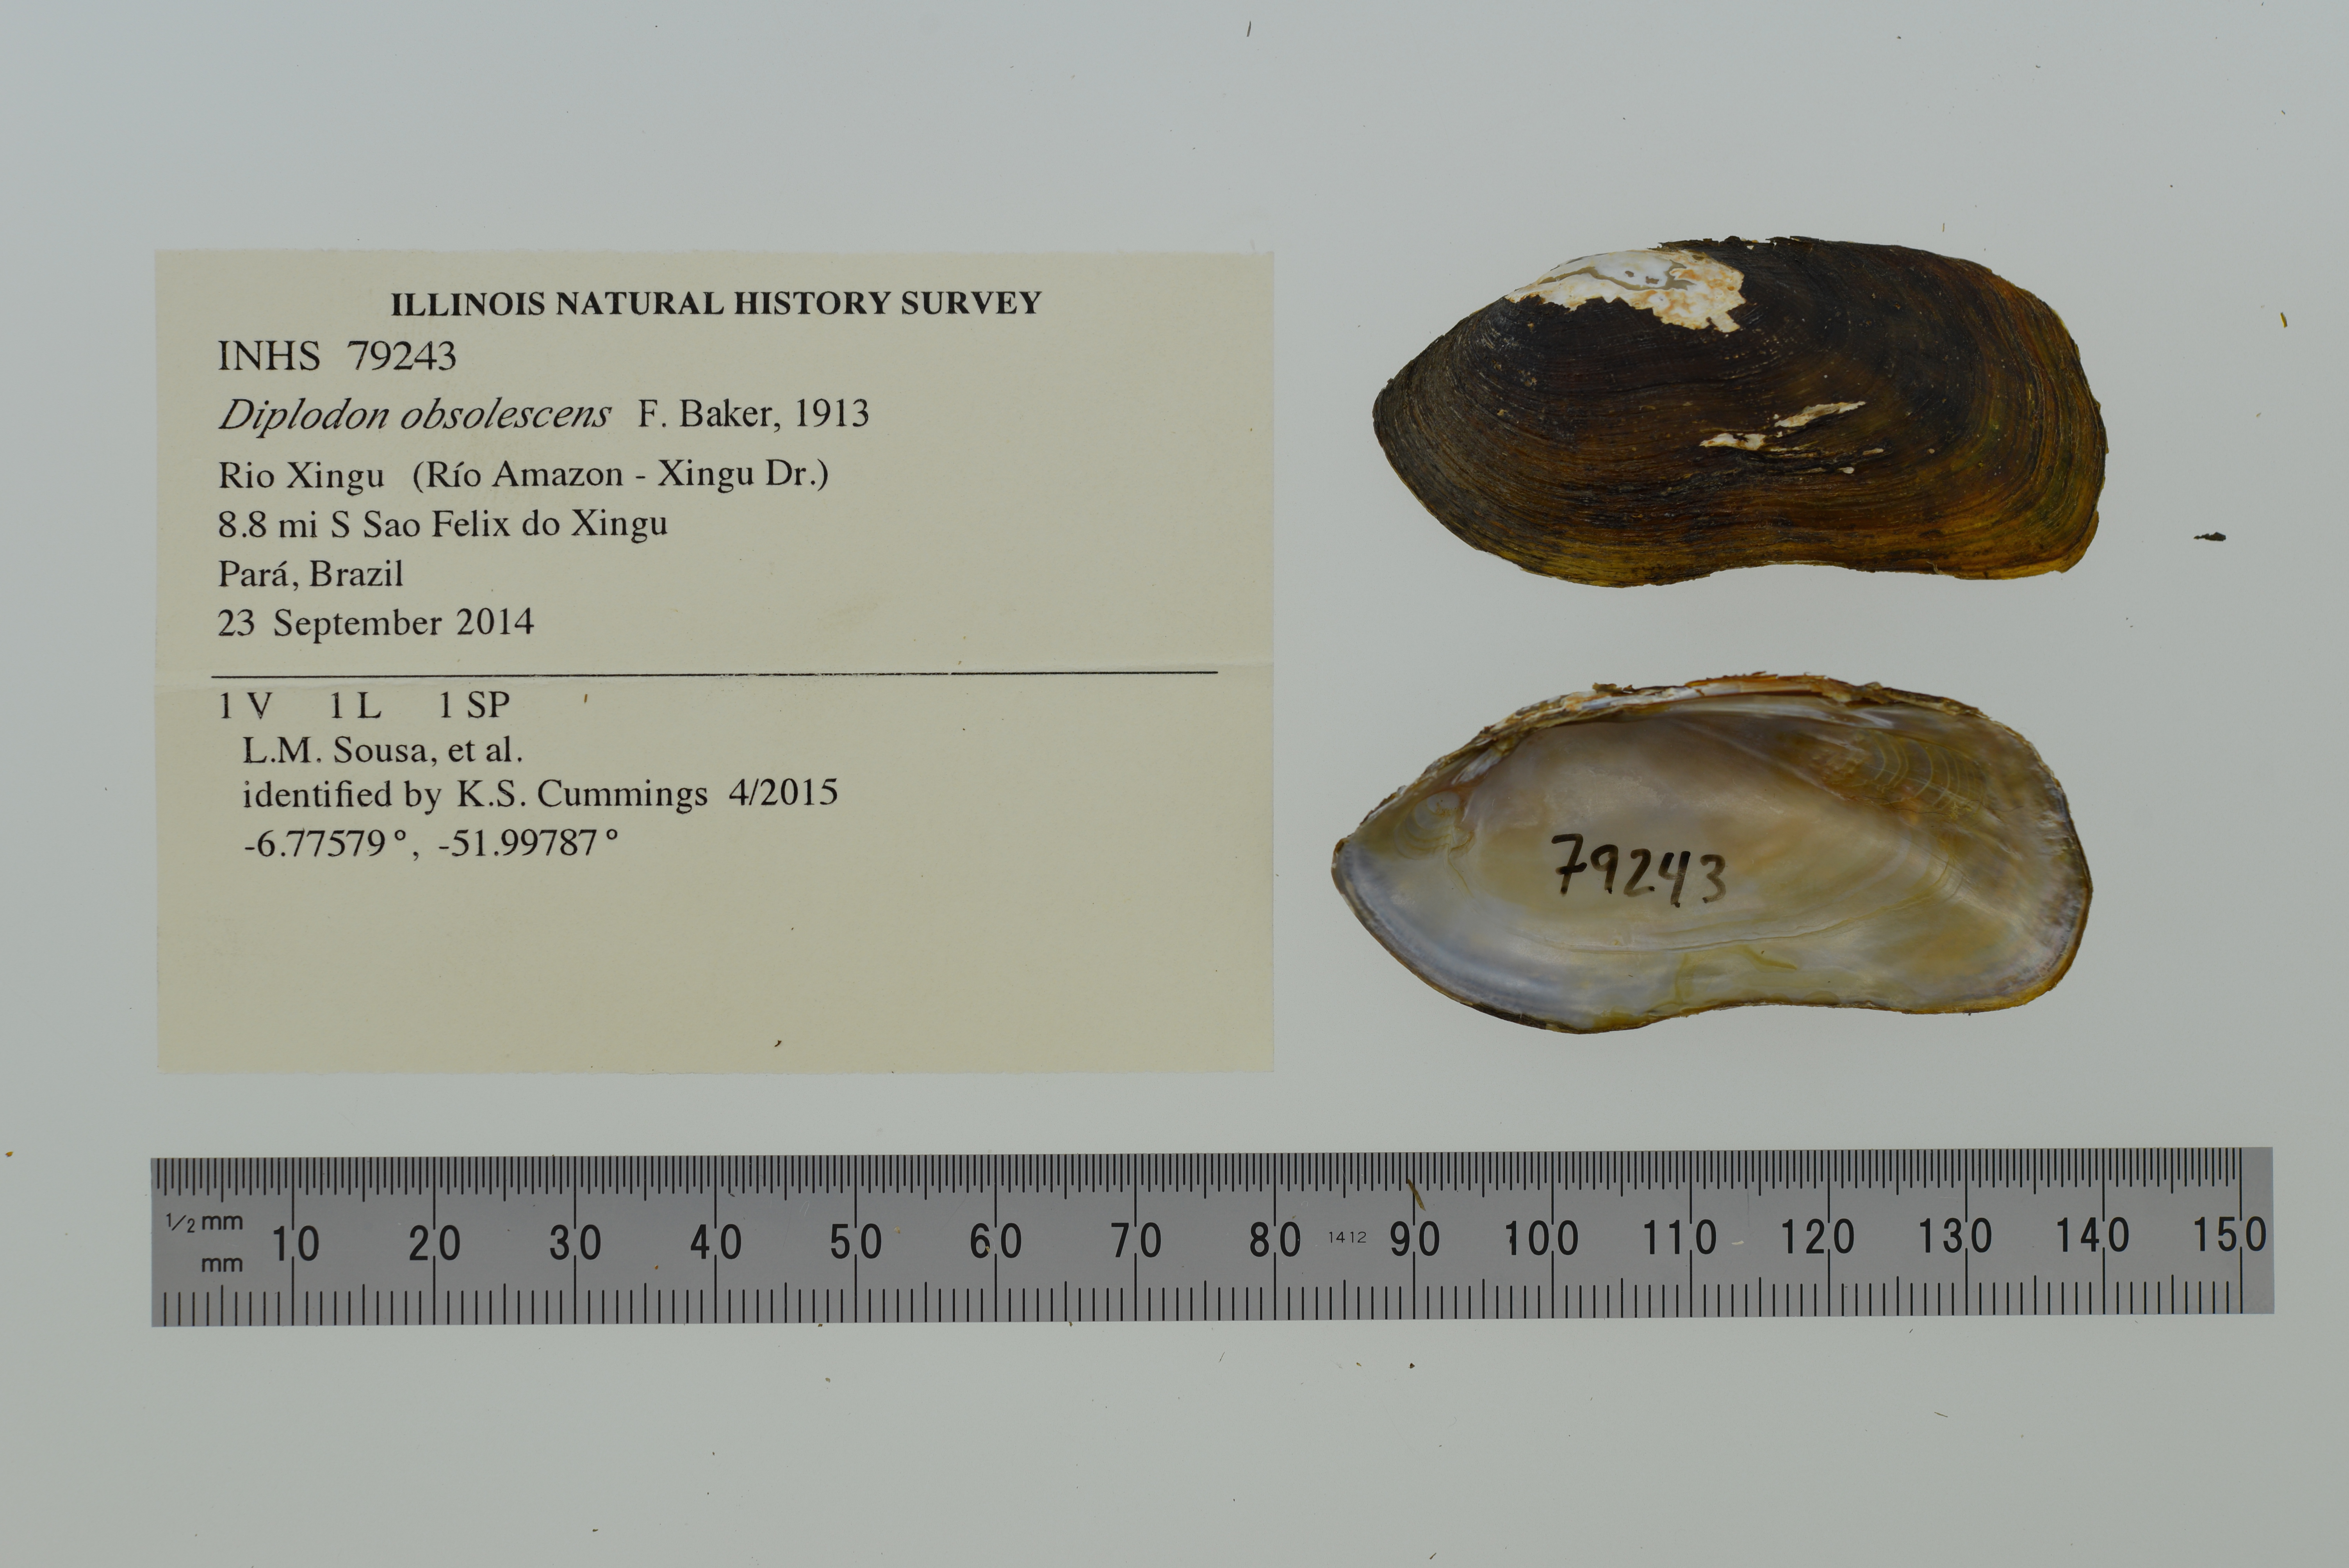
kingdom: Animalia
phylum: Mollusca
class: Bivalvia
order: Unionida
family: Hyriidae
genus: Diplodon
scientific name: Diplodon obsolescens
